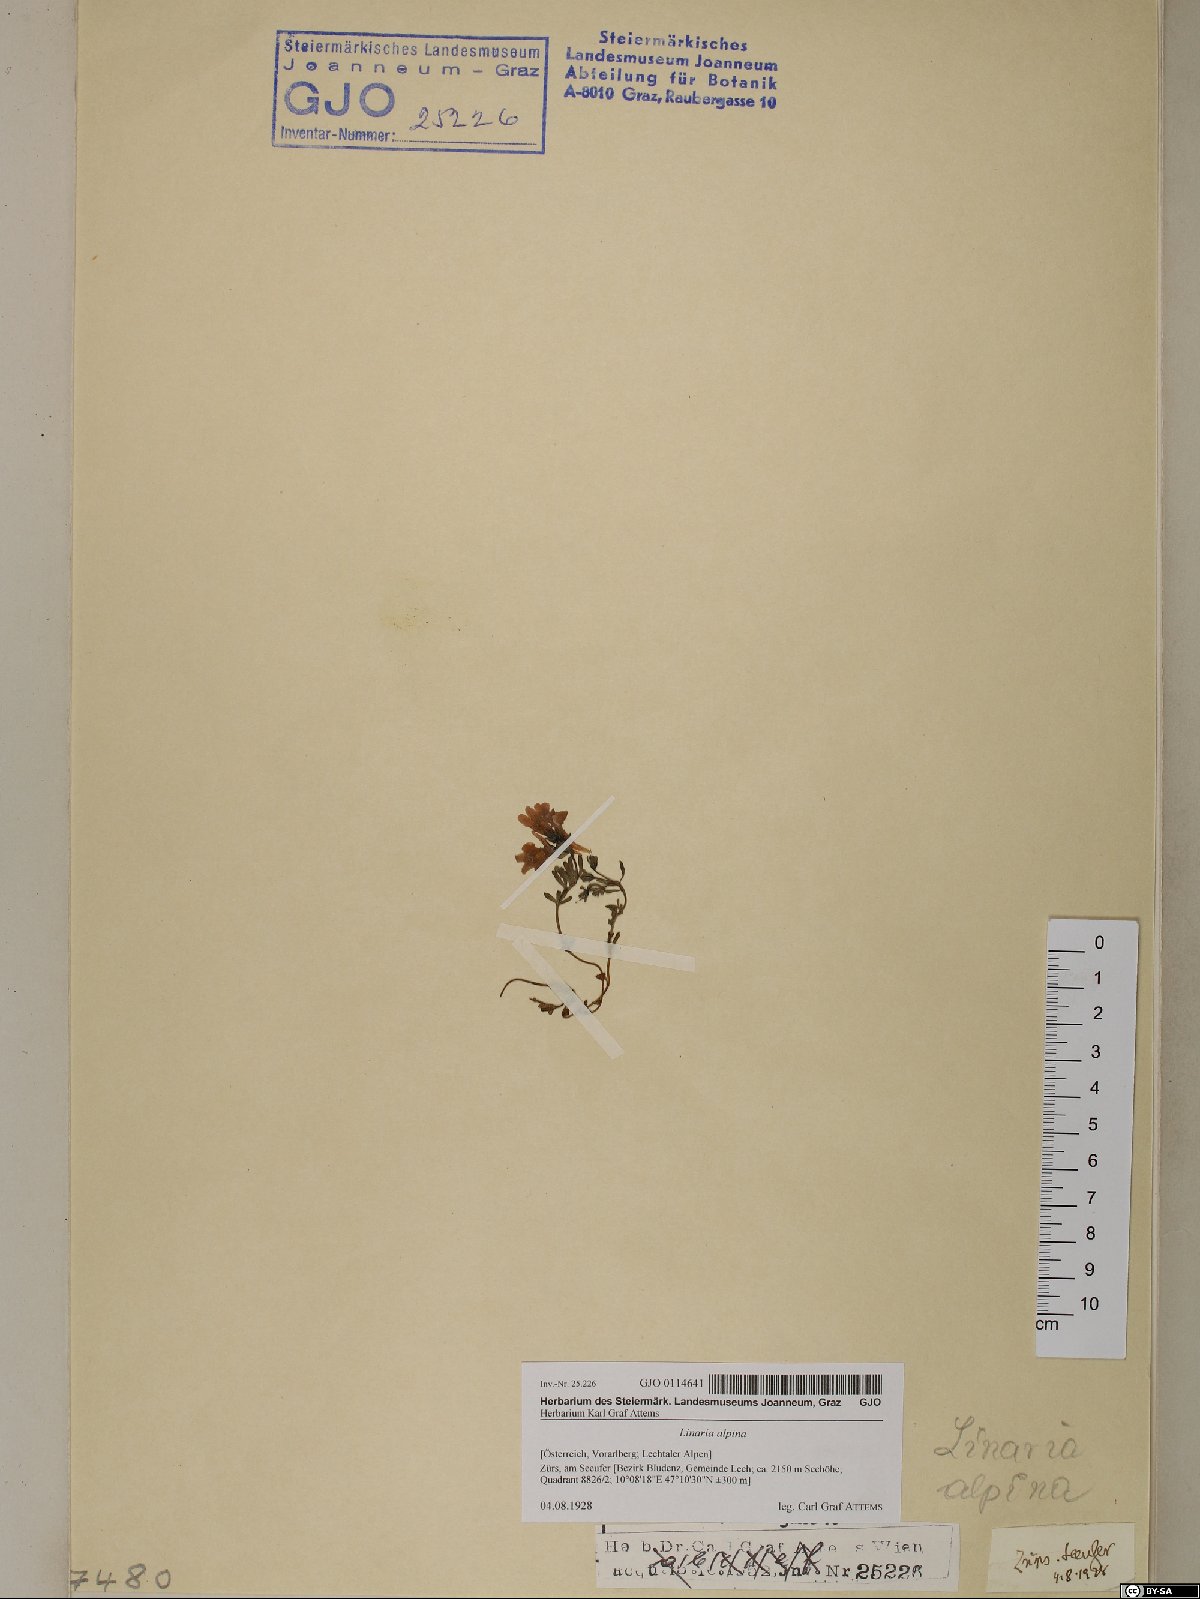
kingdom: Plantae
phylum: Tracheophyta
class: Magnoliopsida
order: Lamiales
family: Plantaginaceae
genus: Linaria
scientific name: Linaria alpina
